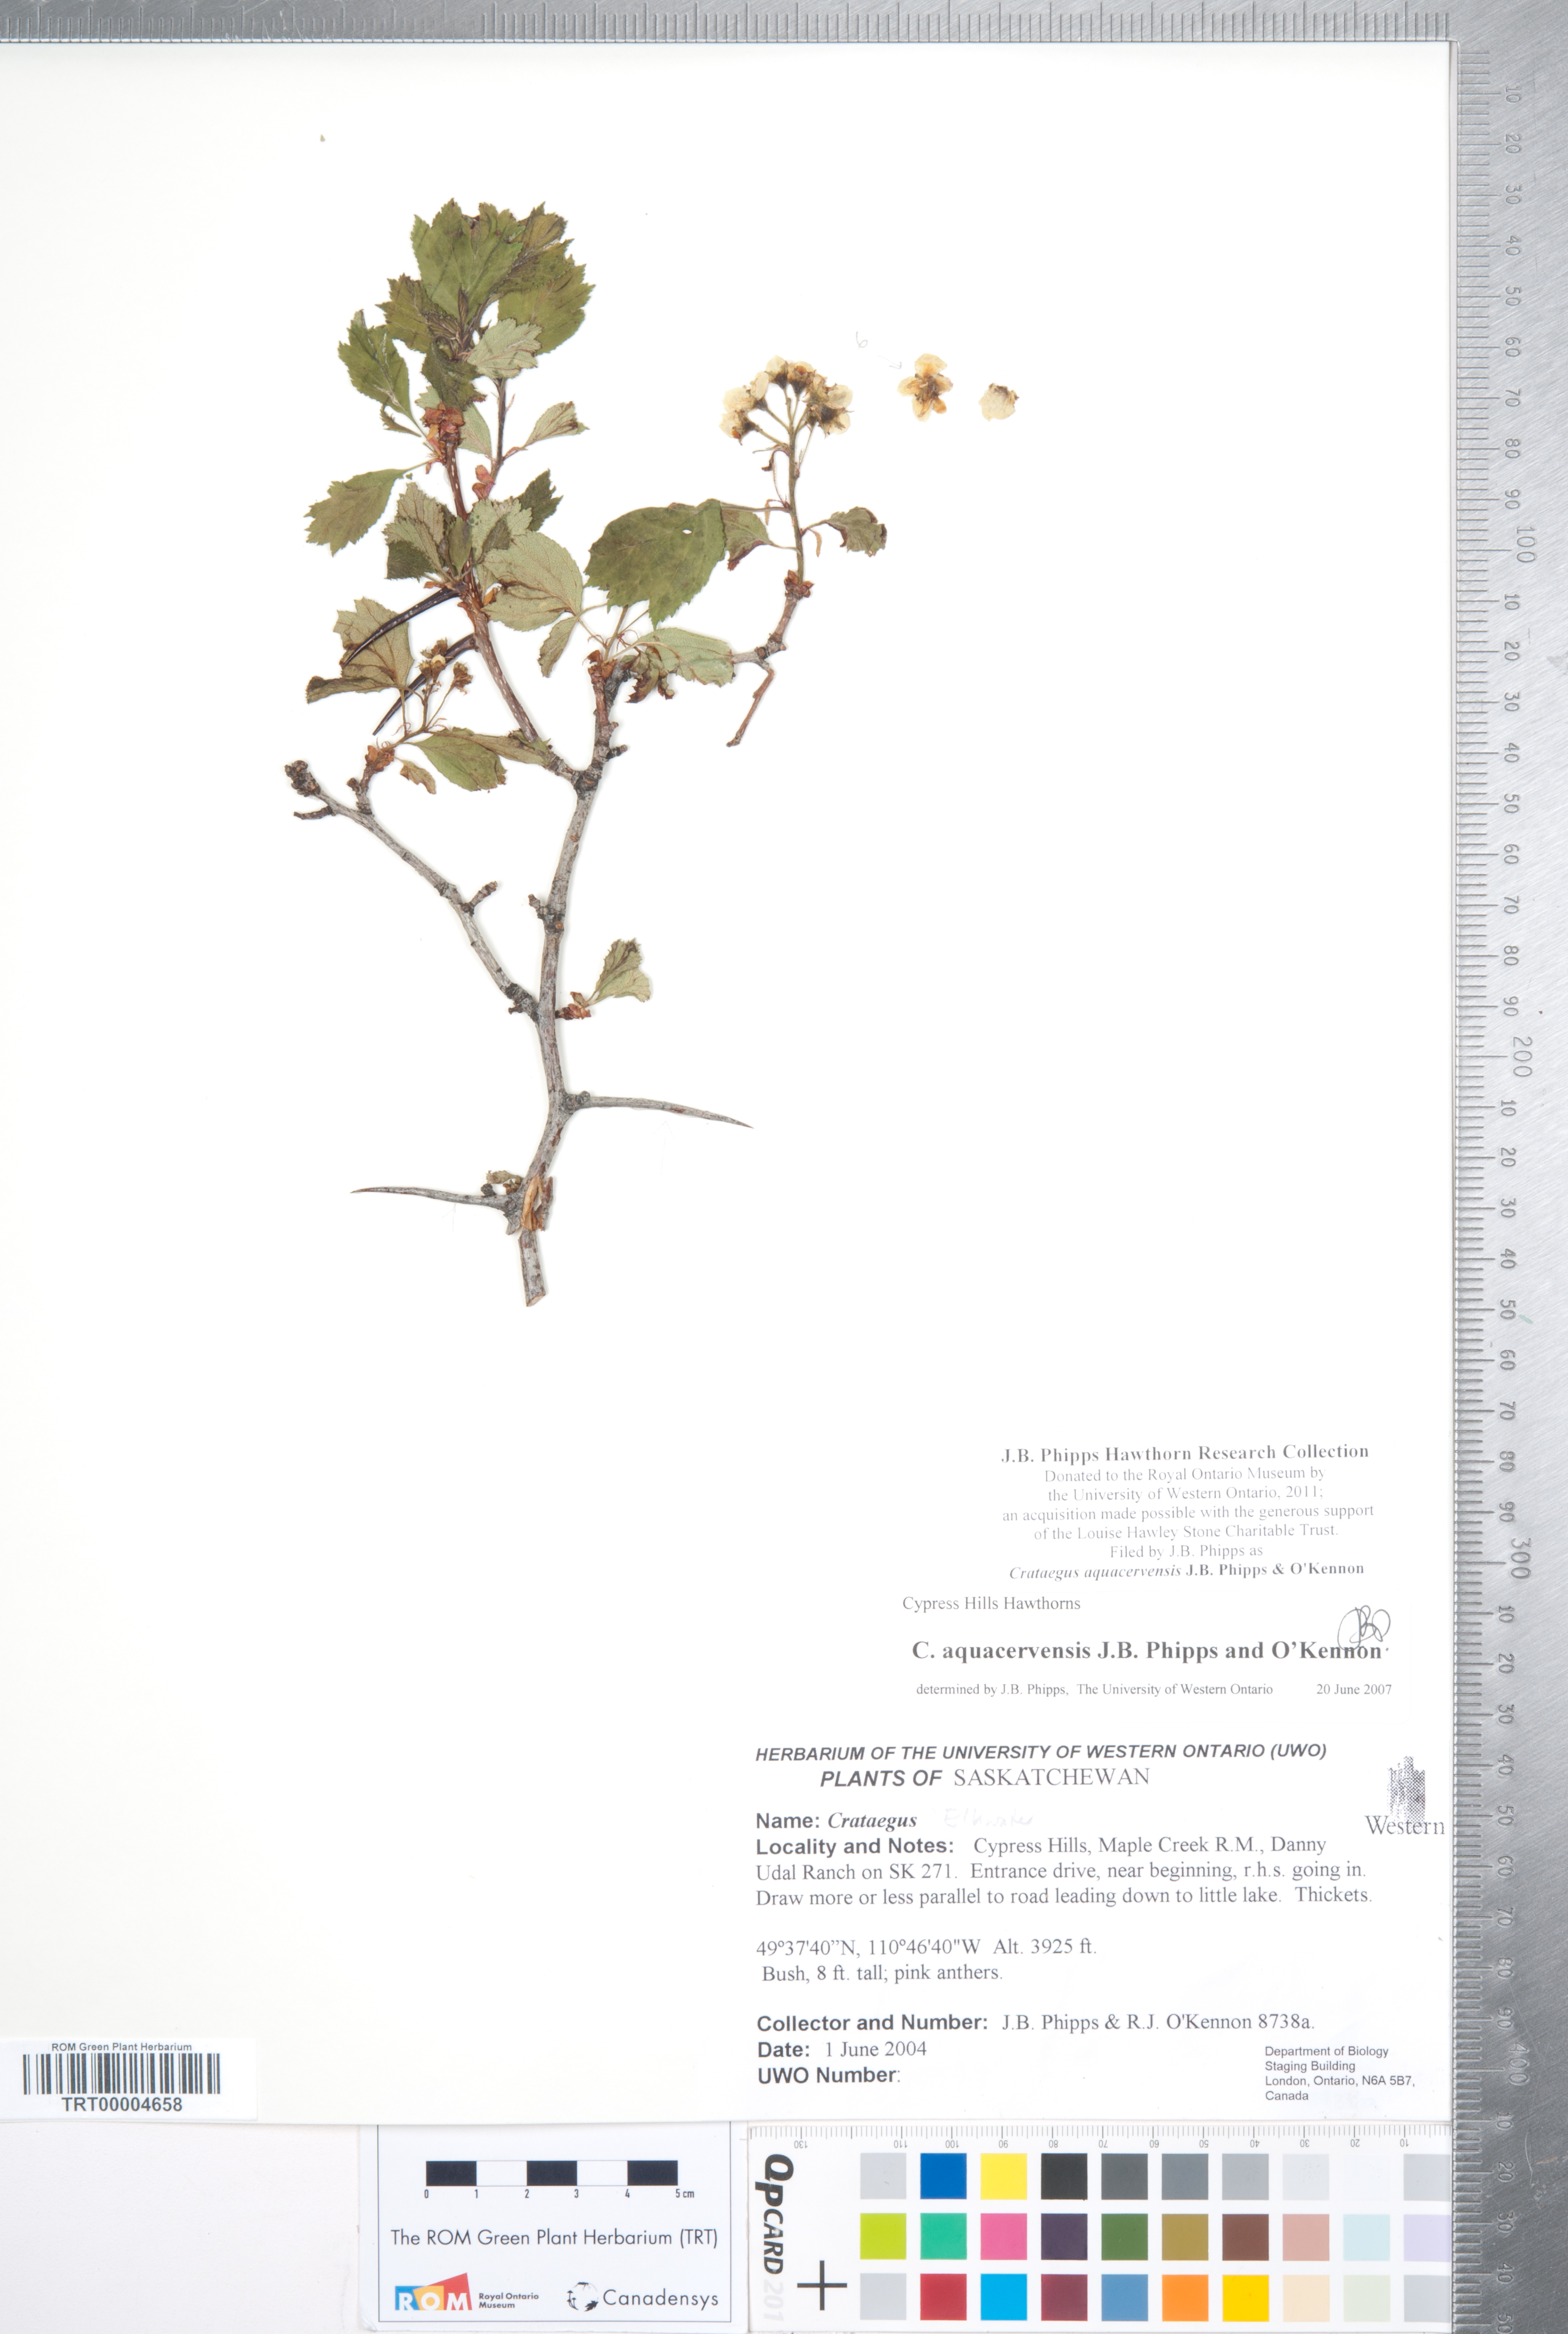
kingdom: Plantae
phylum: Tracheophyta
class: Magnoliopsida
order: Rosales
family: Rosaceae
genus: Crataegus
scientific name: Crataegus aquacervensis
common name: Elkwater hawthorn
